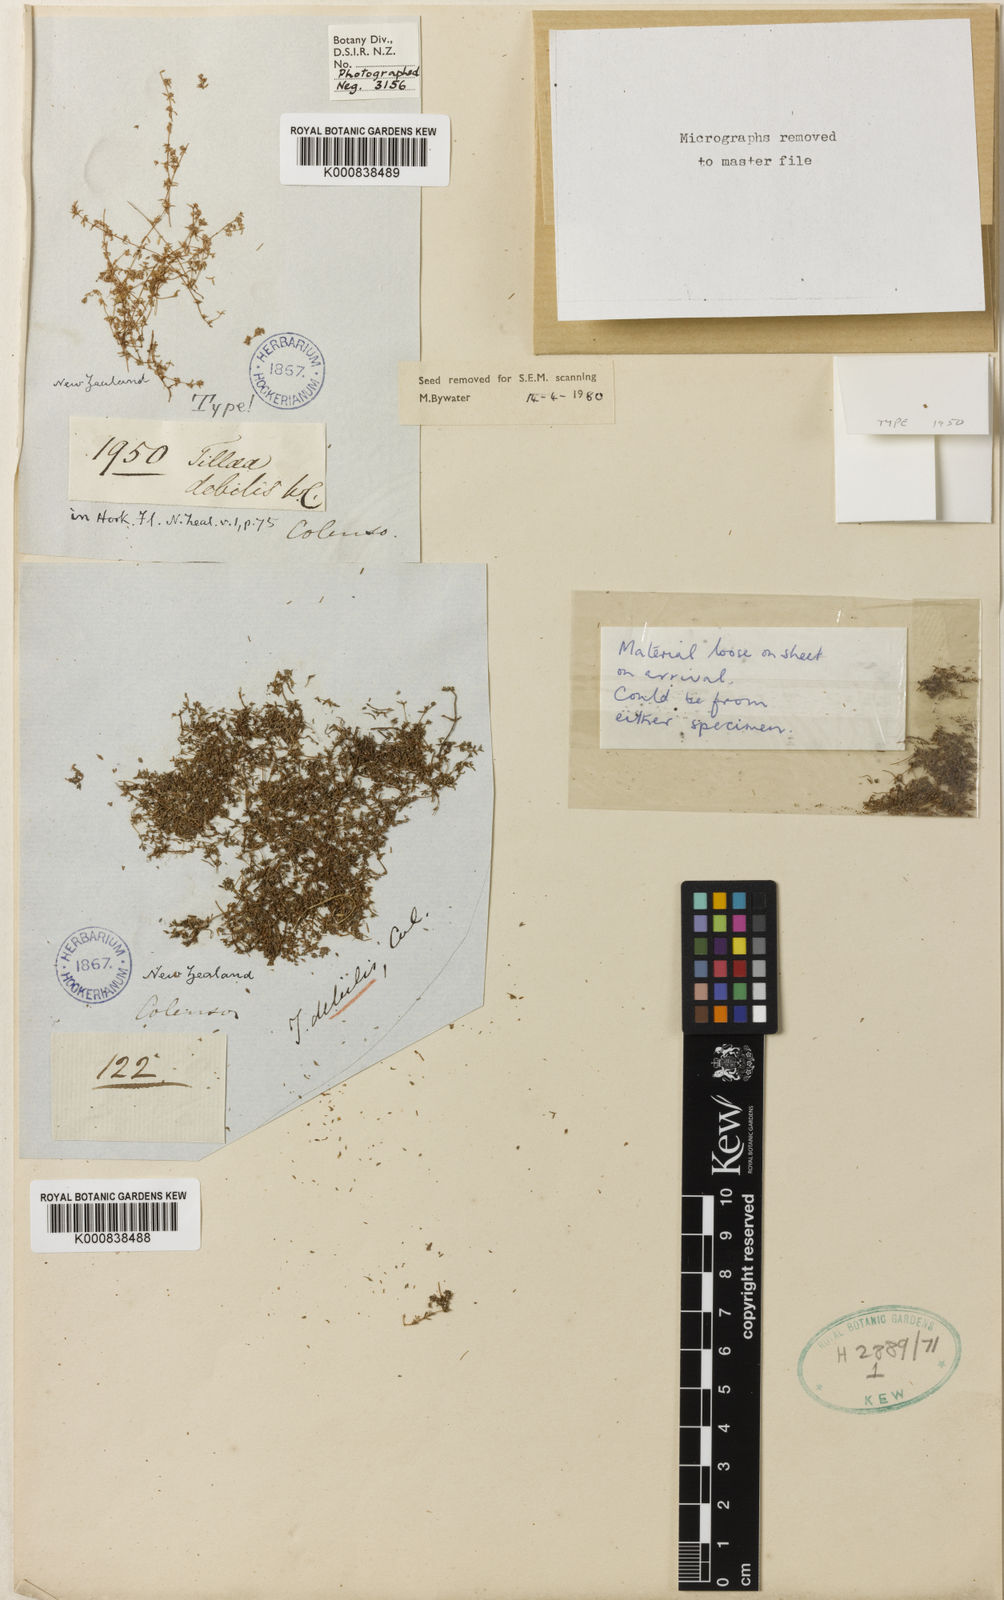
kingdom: Plantae
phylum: Tracheophyta
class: Magnoliopsida
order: Saxifragales
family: Crassulaceae
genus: Crassula
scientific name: Crassula thunbergiana
